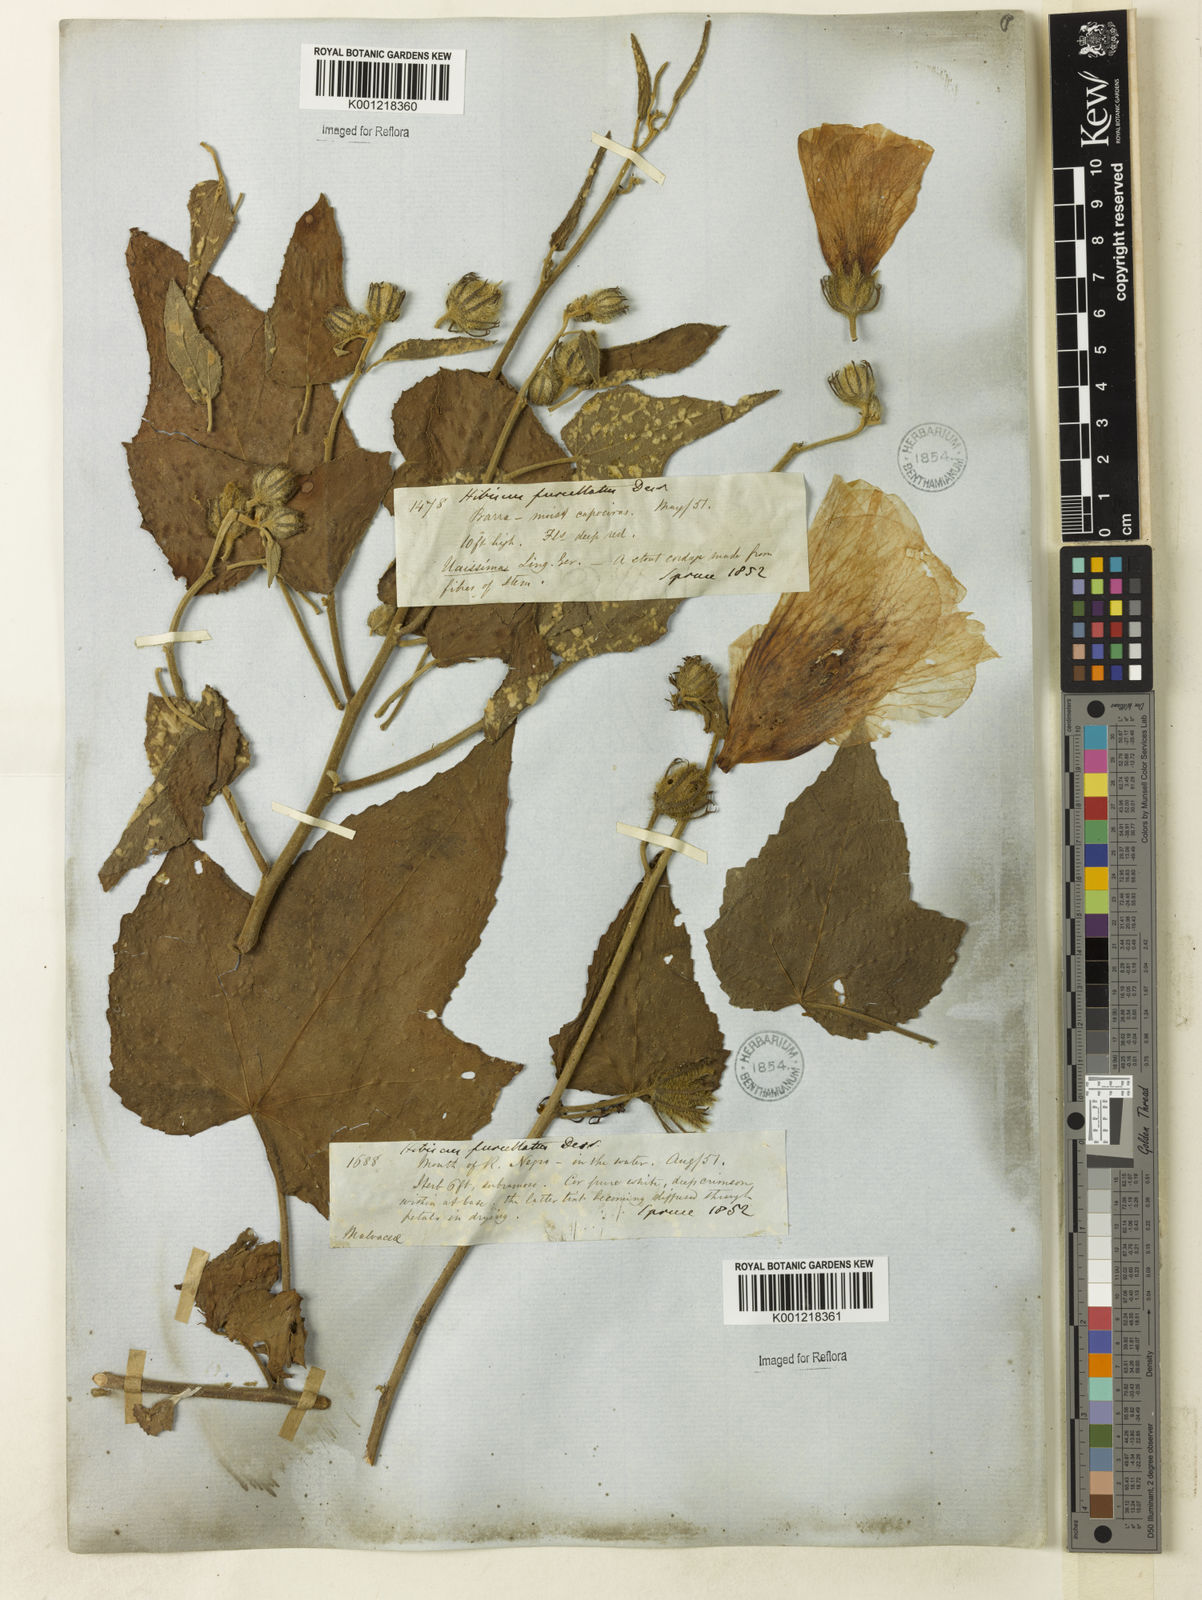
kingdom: Plantae
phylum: Tracheophyta
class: Magnoliopsida
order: Malvales
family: Malvaceae
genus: Hibiscus
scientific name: Hibiscus furcellatus
